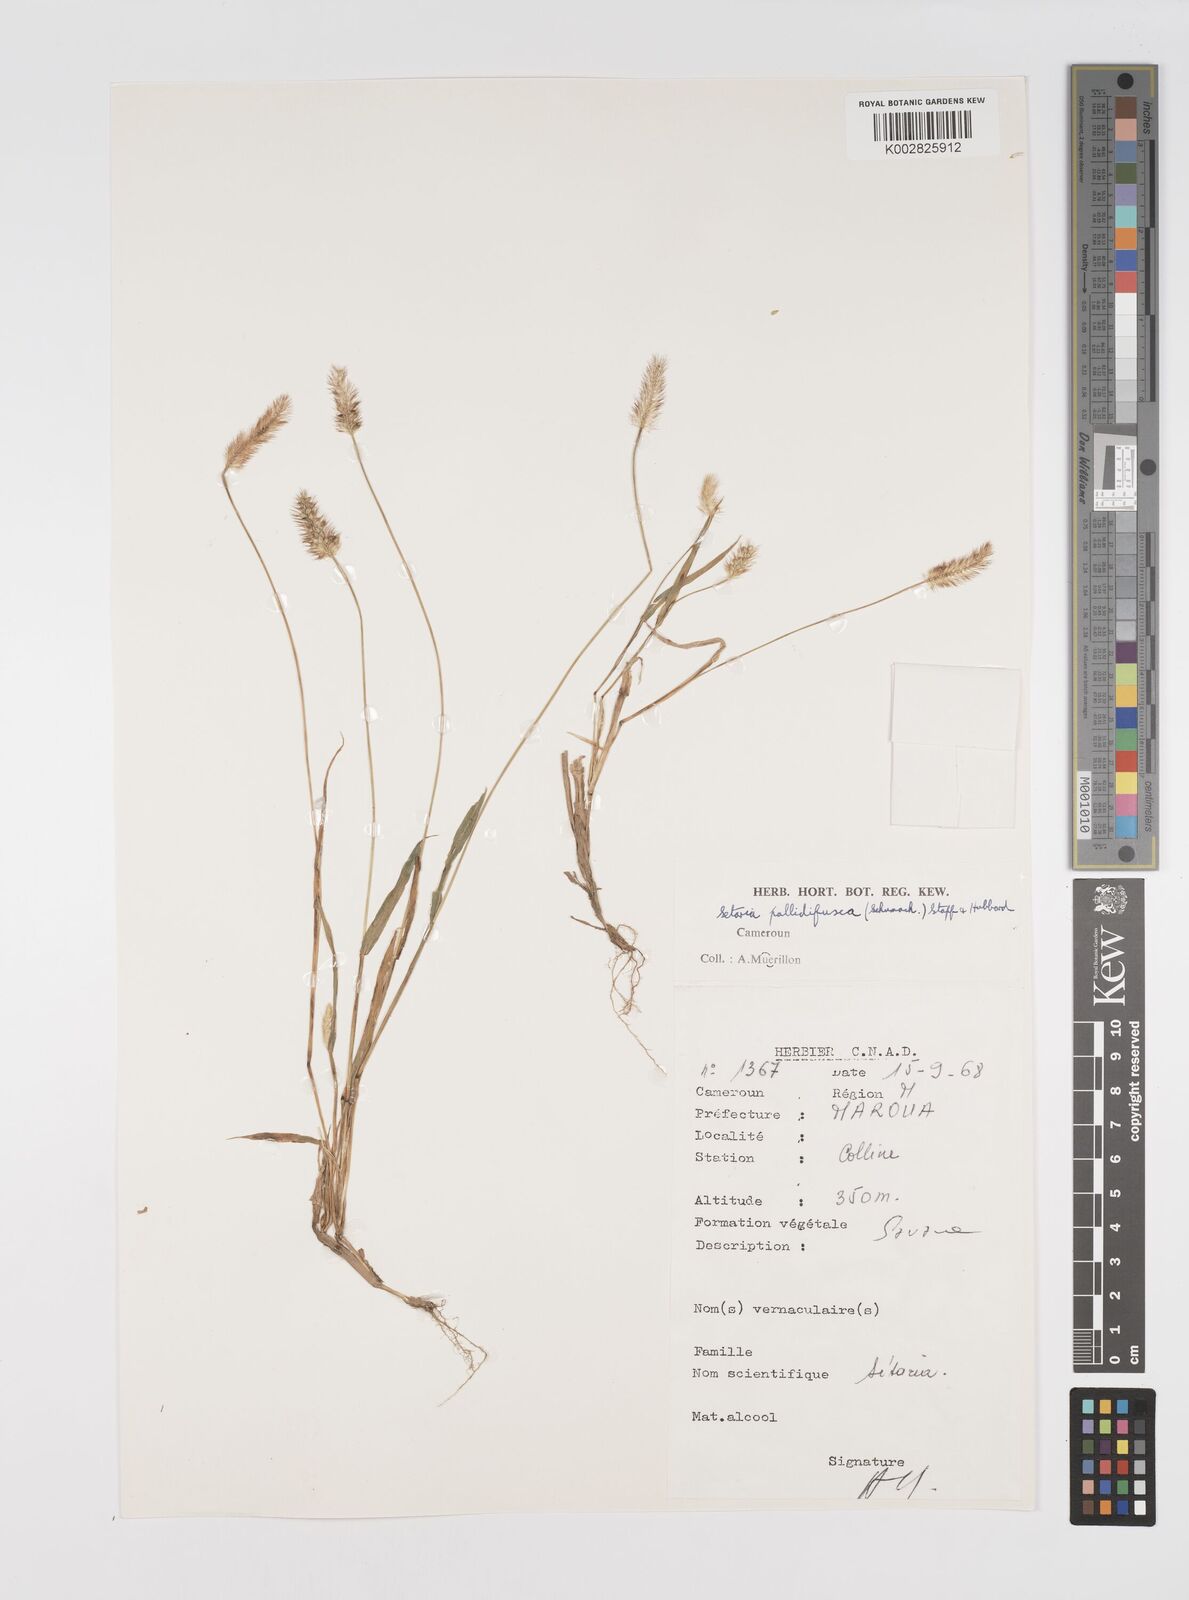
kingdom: Plantae
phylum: Tracheophyta
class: Liliopsida
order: Poales
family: Poaceae
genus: Setaria
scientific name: Setaria pumila
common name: Yellow bristle-grass
